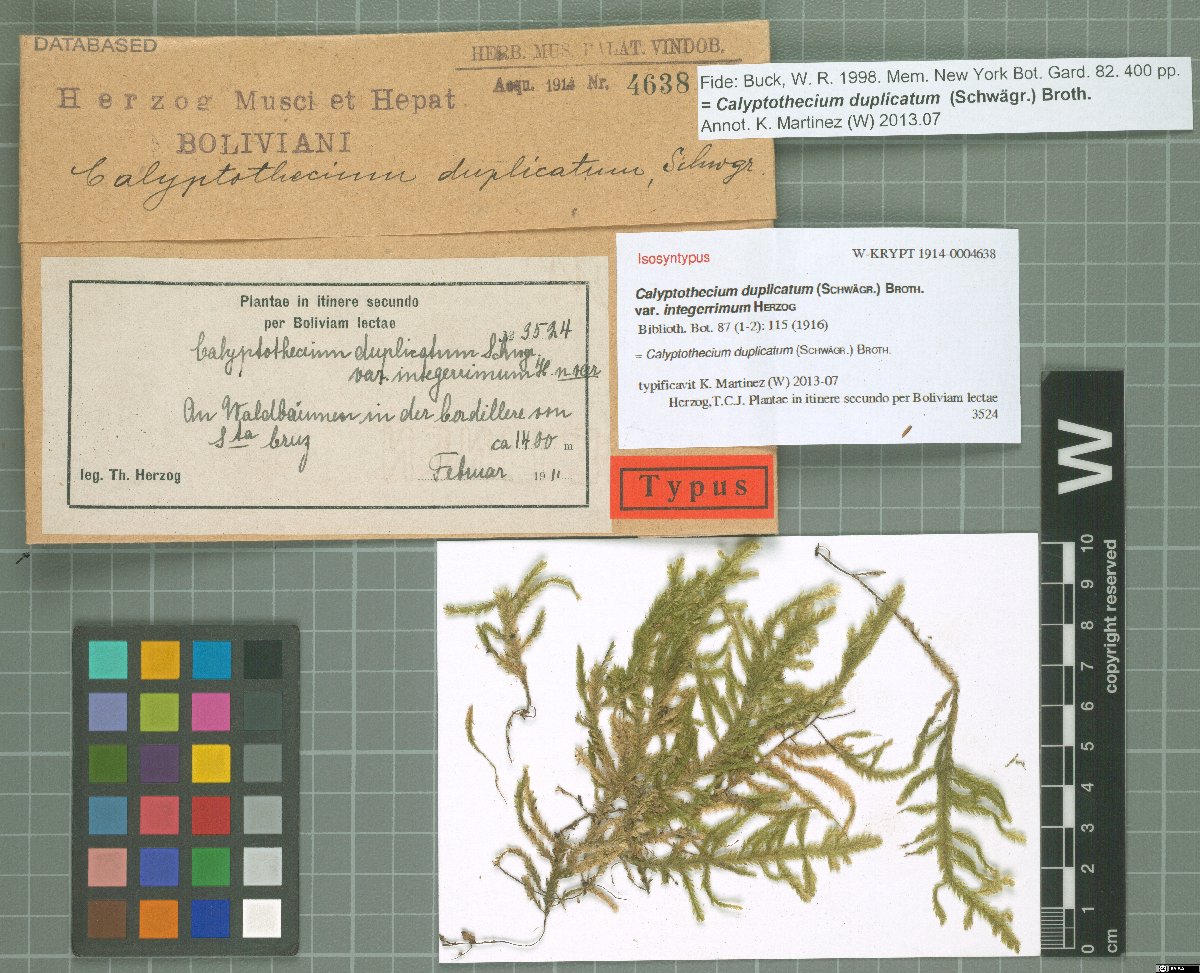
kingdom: Plantae
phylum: Bryophyta
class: Bryopsida
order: Hypnales
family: Pterobryaceae
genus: Calyptothecium
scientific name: Calyptothecium duplicatum
